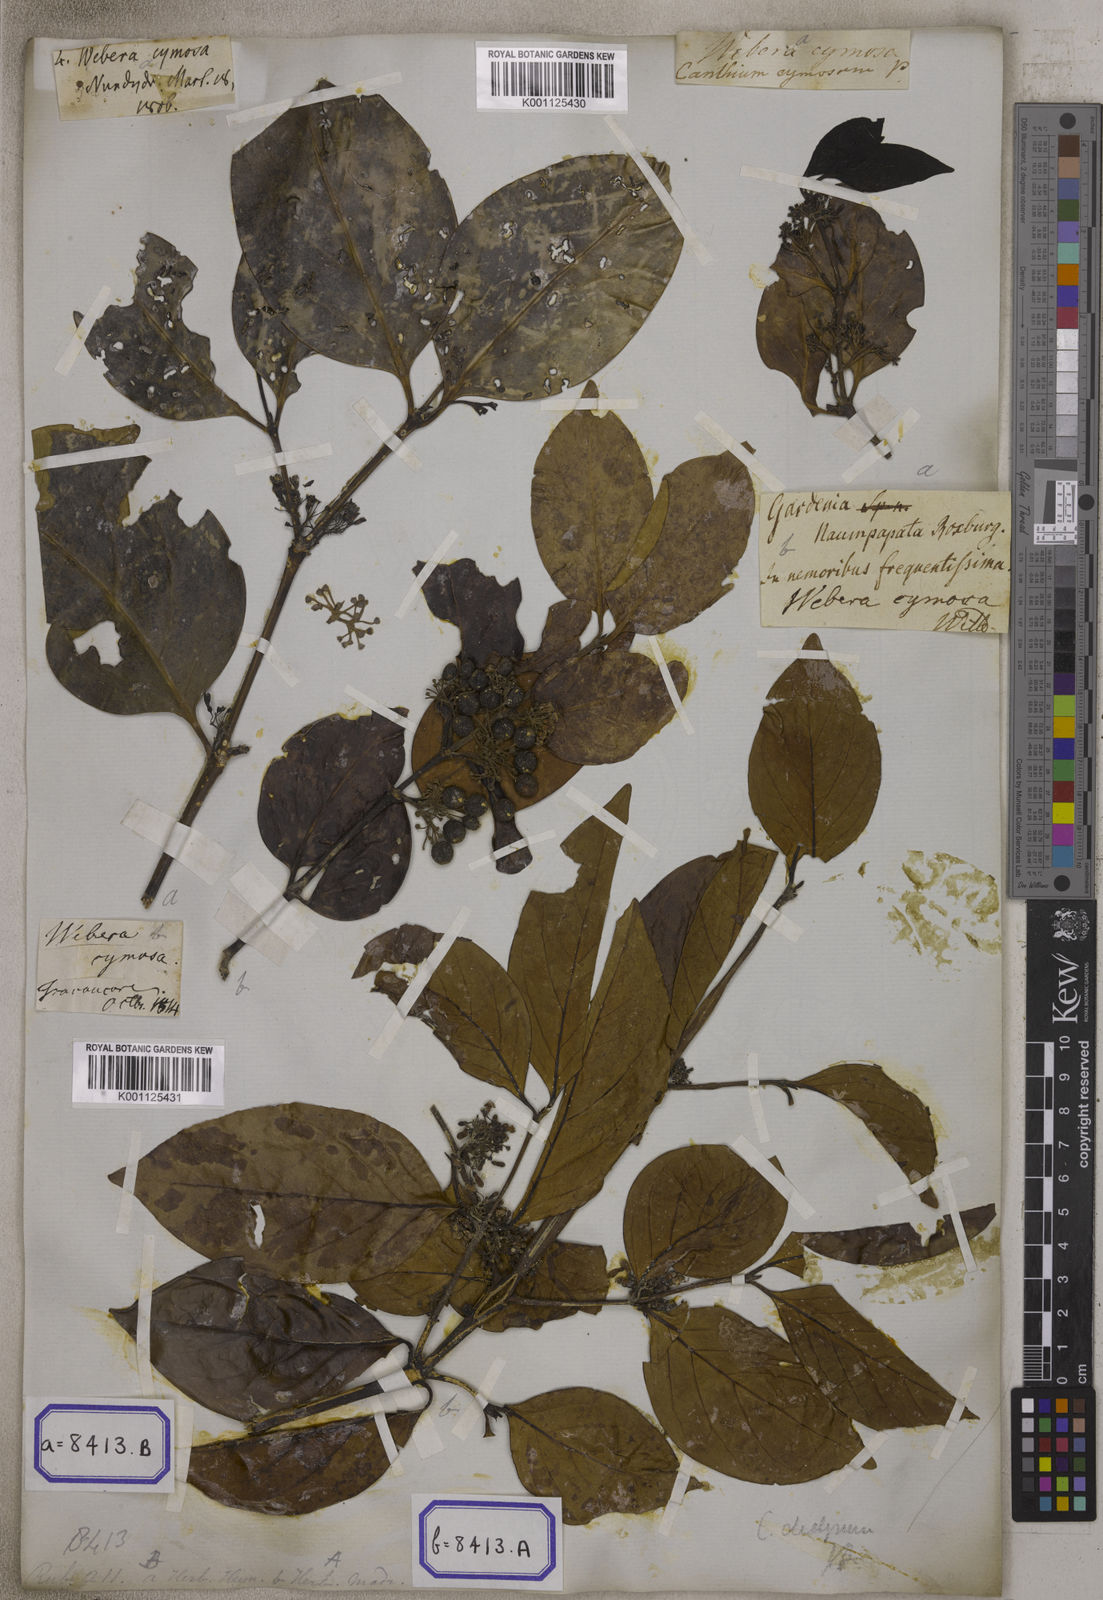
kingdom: Plantae
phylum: Tracheophyta
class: Magnoliopsida
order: Gentianales
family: Rubiaceae
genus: Psydrax
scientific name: Psydrax dicoccos
